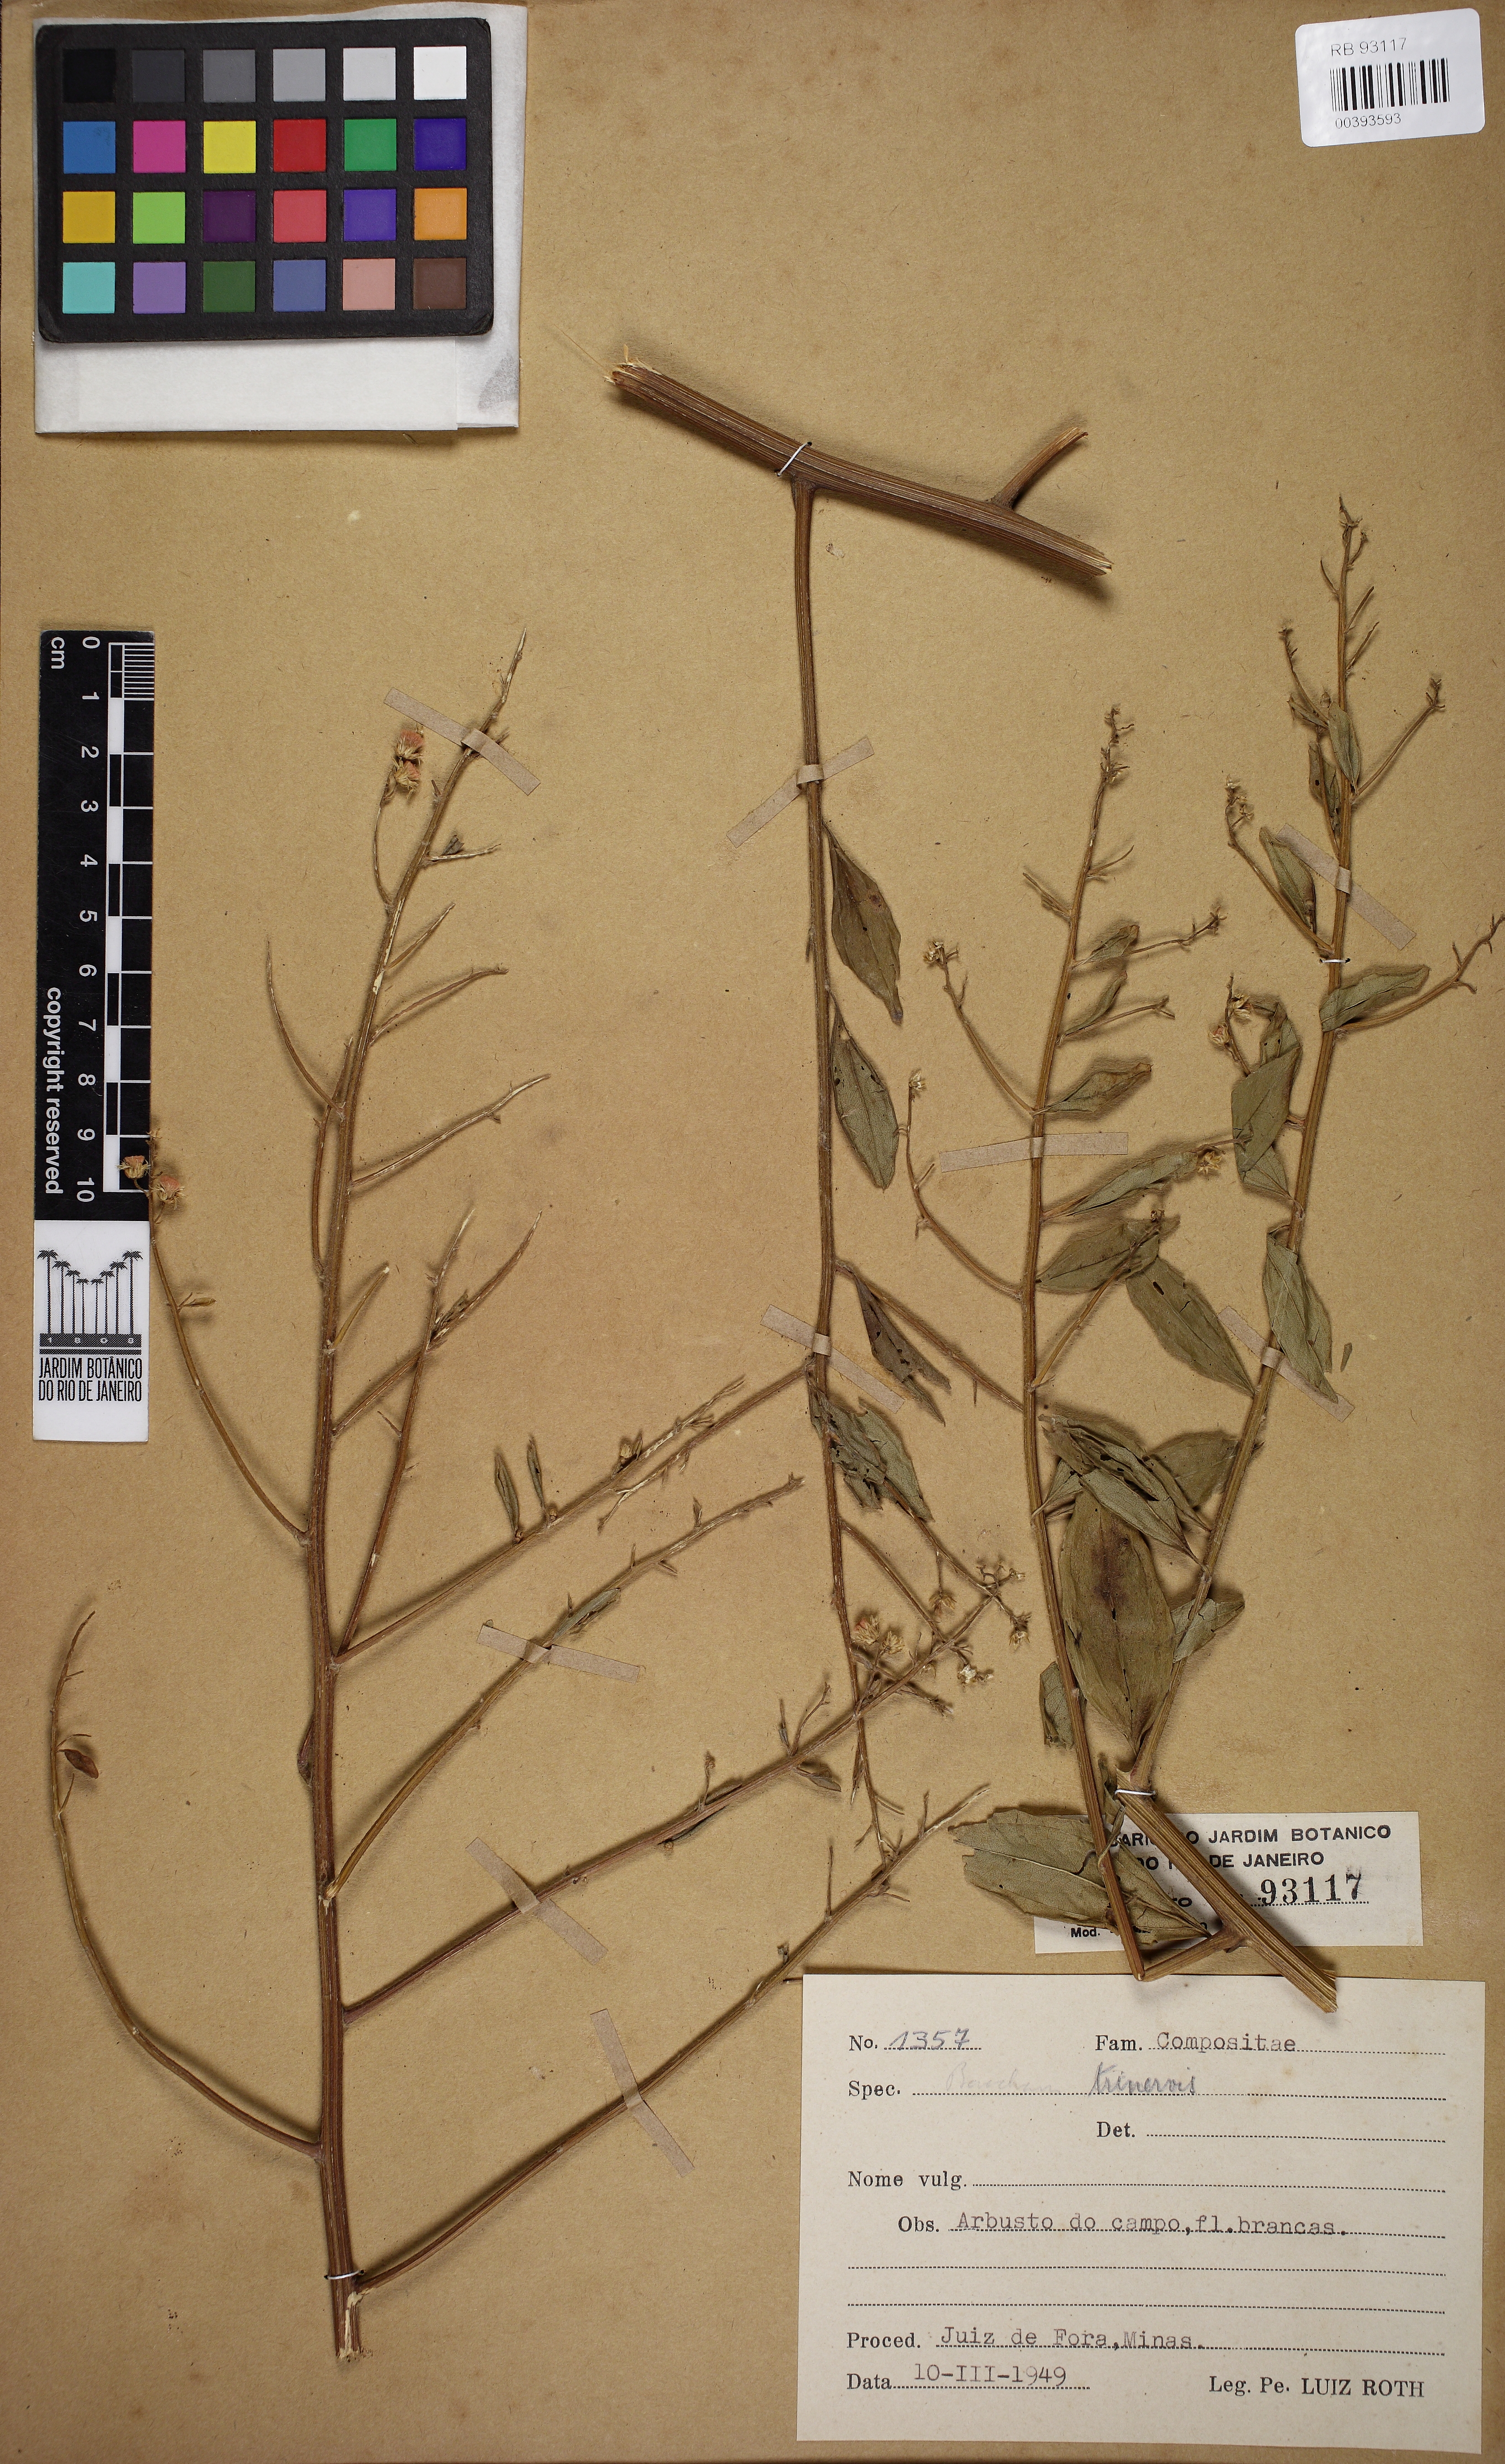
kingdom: Plantae
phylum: Tracheophyta
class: Magnoliopsida
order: Asterales
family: Asteraceae
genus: Baccharis
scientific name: Baccharis trinervis
